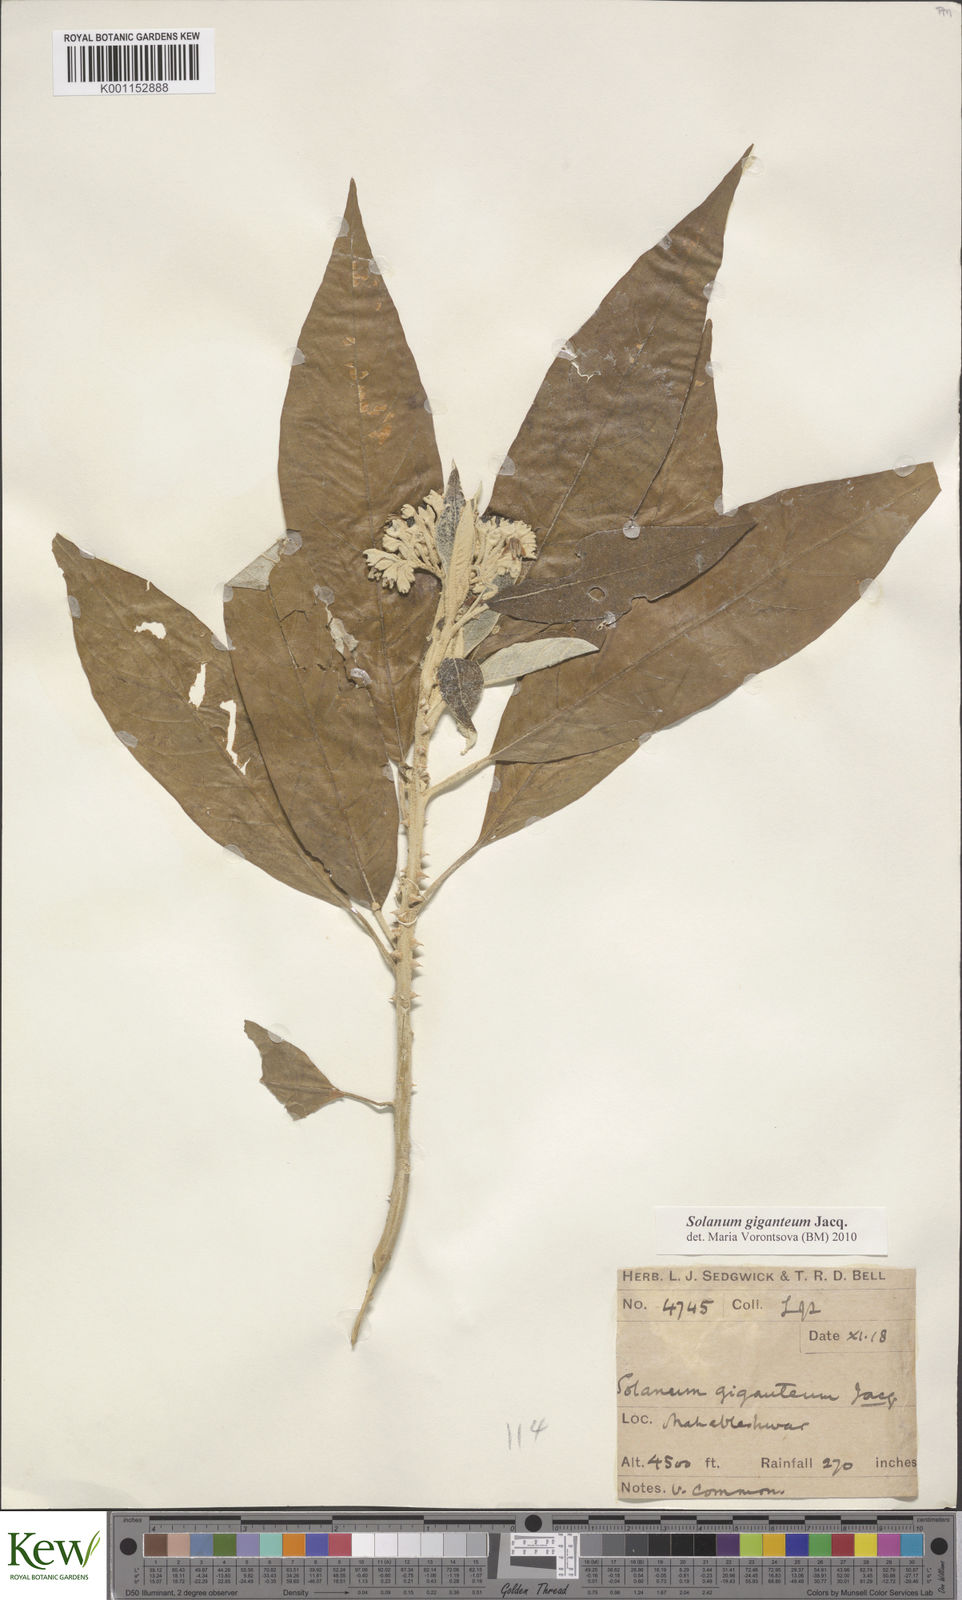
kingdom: Plantae
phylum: Tracheophyta
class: Magnoliopsida
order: Solanales
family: Solanaceae
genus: Solanum
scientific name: Solanum giganteum
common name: Healing-leaf-tree
